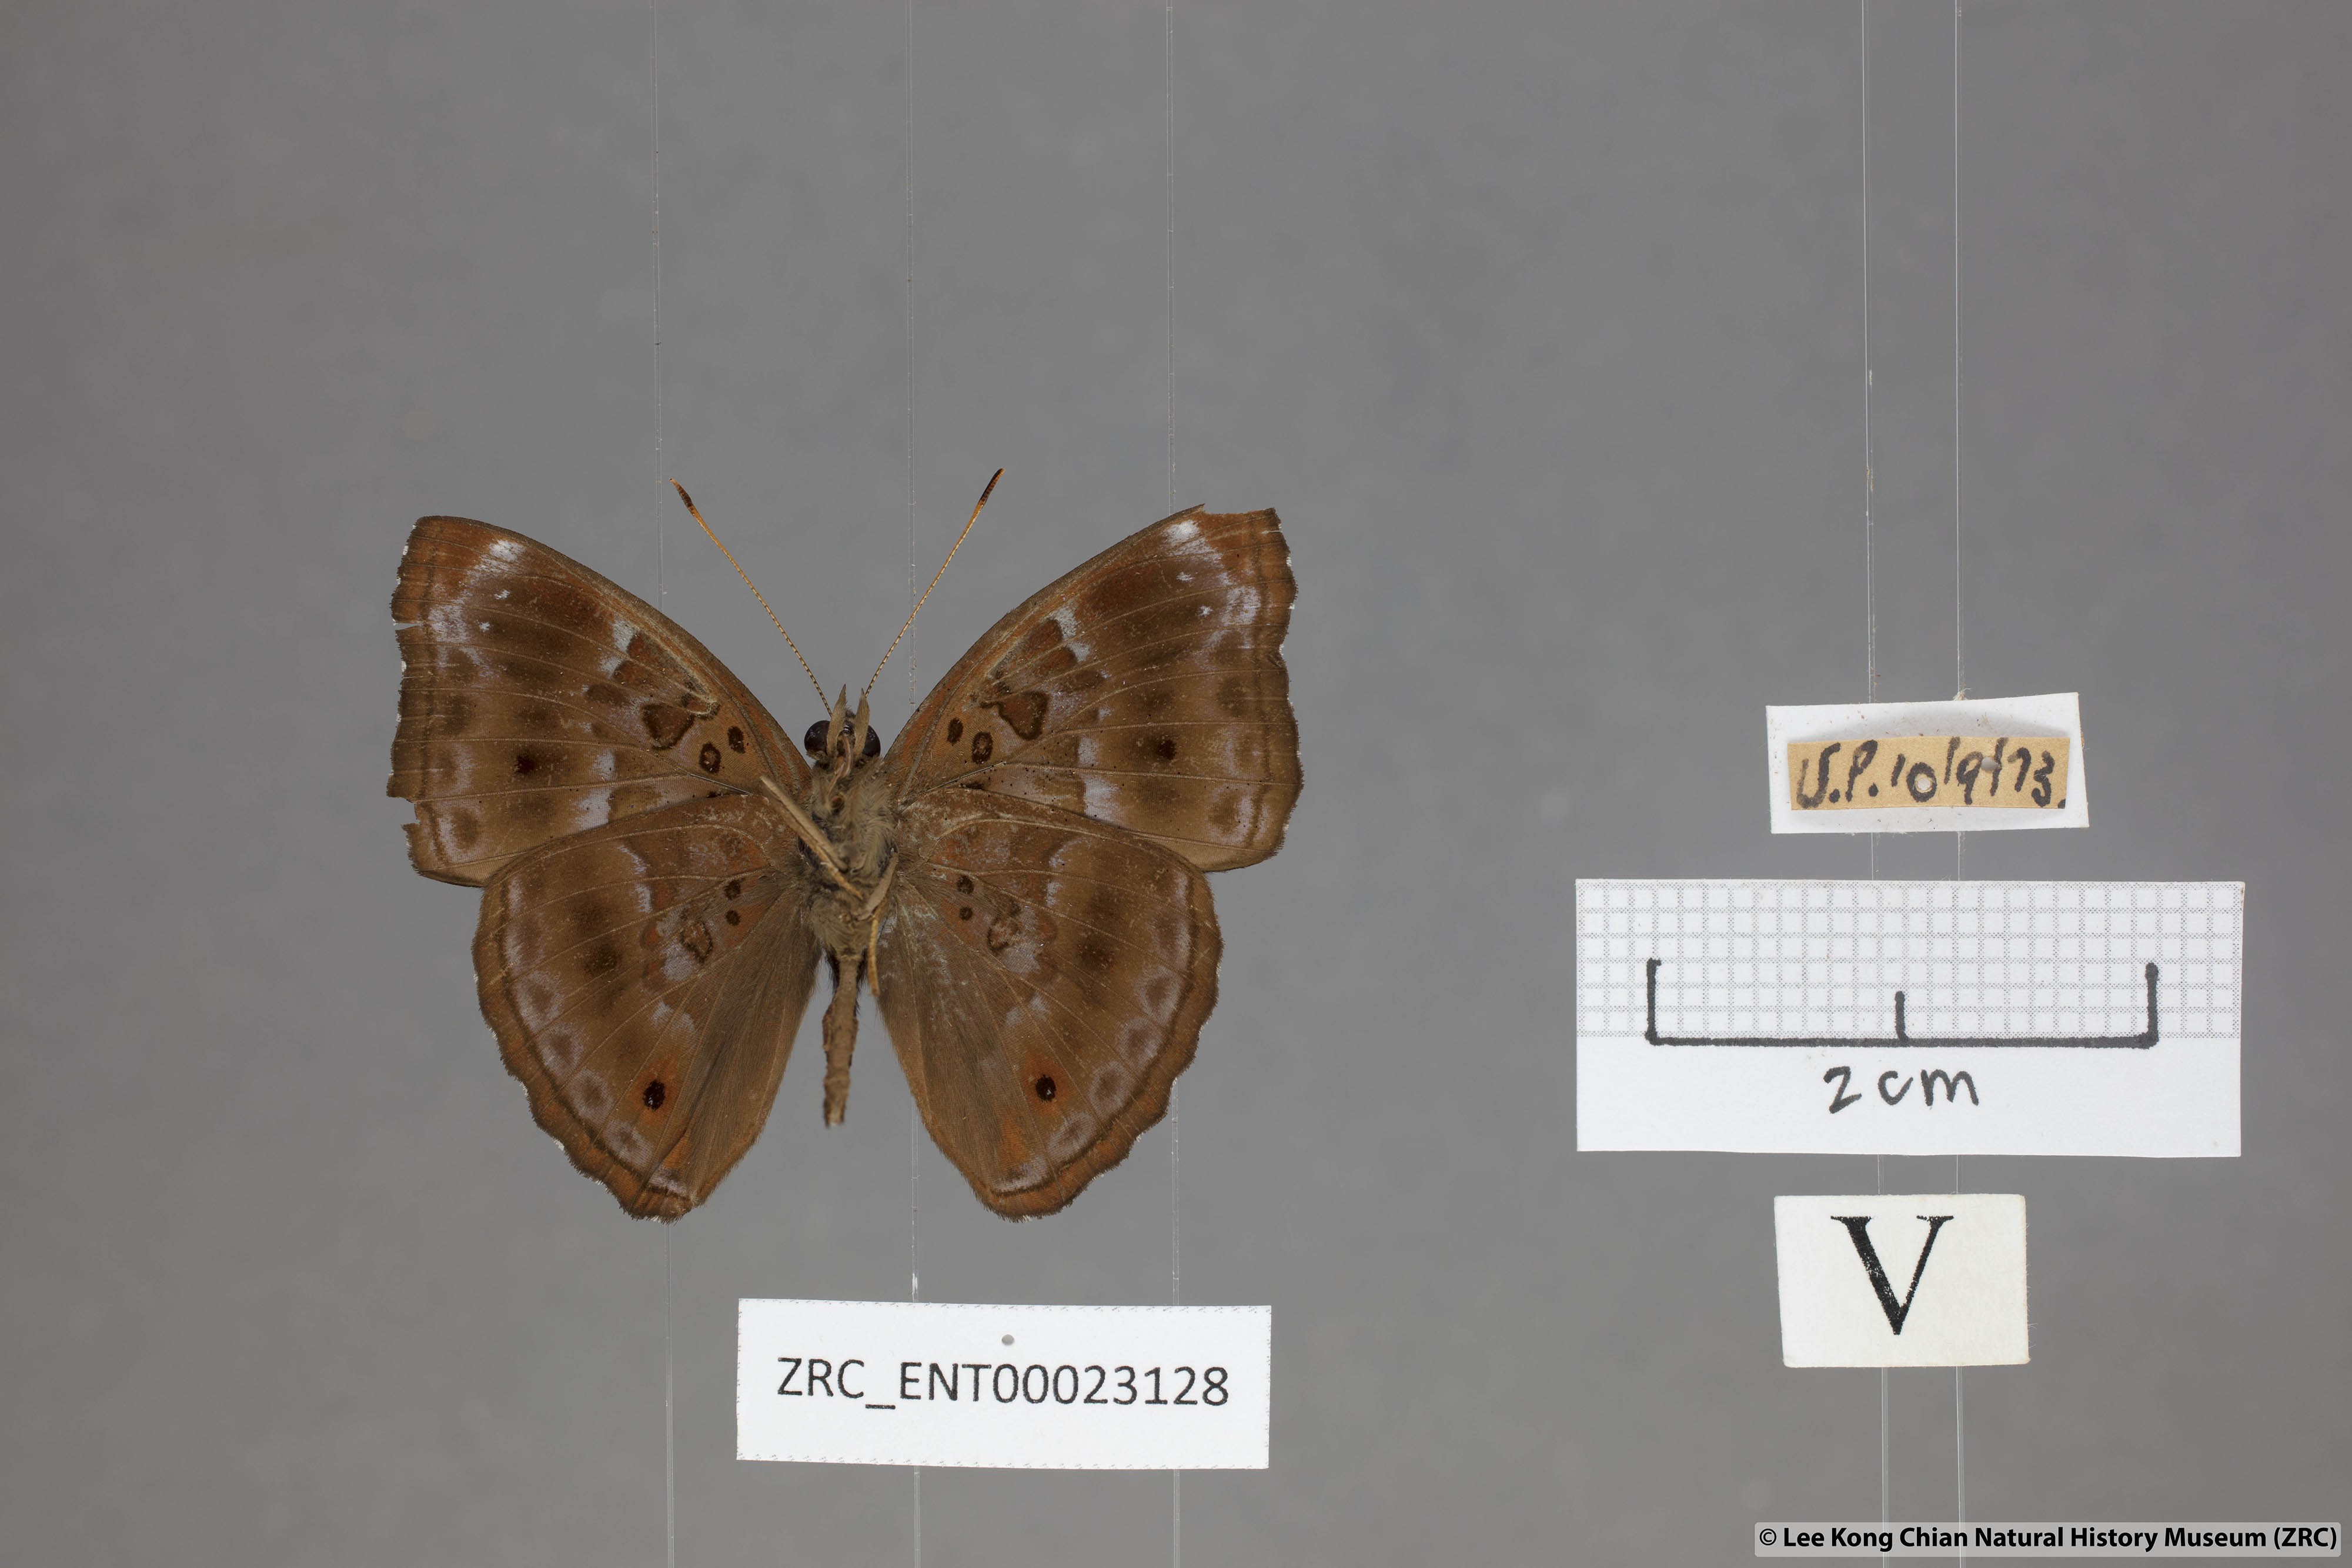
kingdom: Animalia
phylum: Arthropoda
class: Insecta
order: Lepidoptera
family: Nymphalidae
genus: Apatura
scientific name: Apatura Rohana spec
